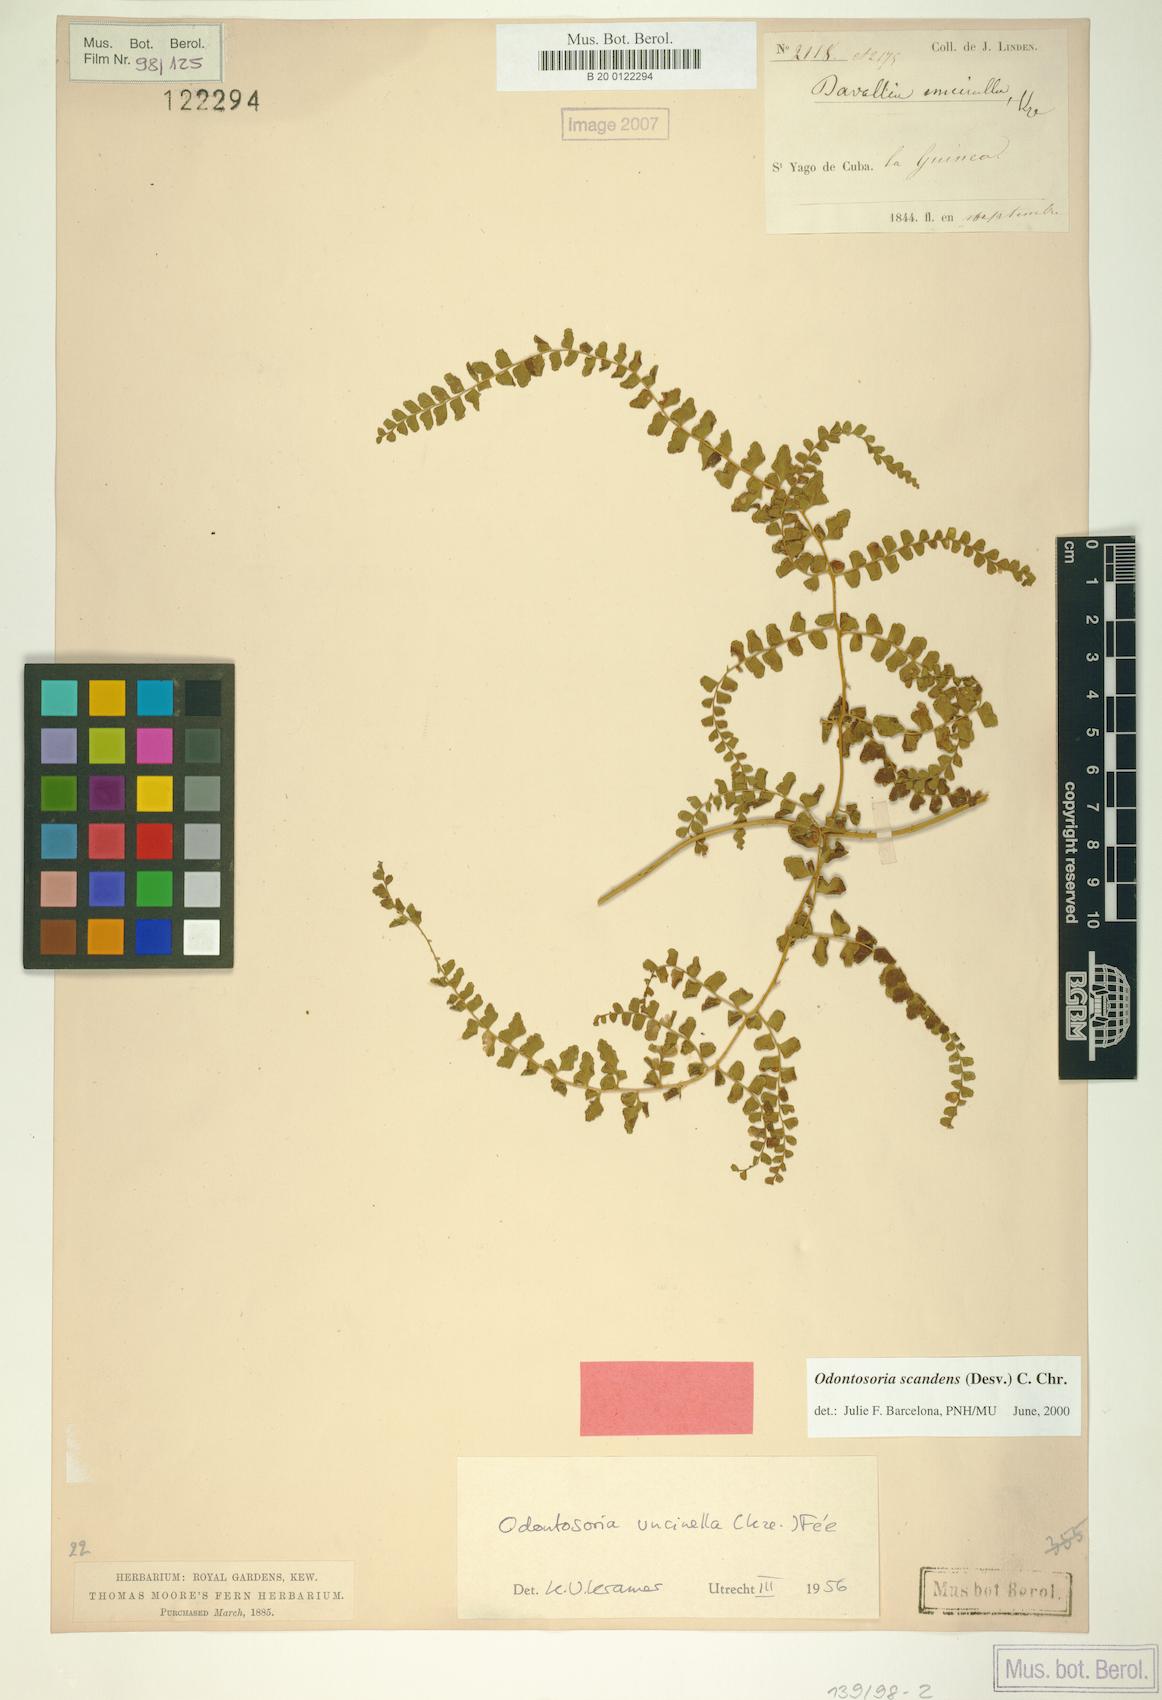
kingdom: Plantae
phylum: Tracheophyta
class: Polypodiopsida
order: Polypodiales
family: Lindsaeaceae
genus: Odontosoria
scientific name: Odontosoria scandens
